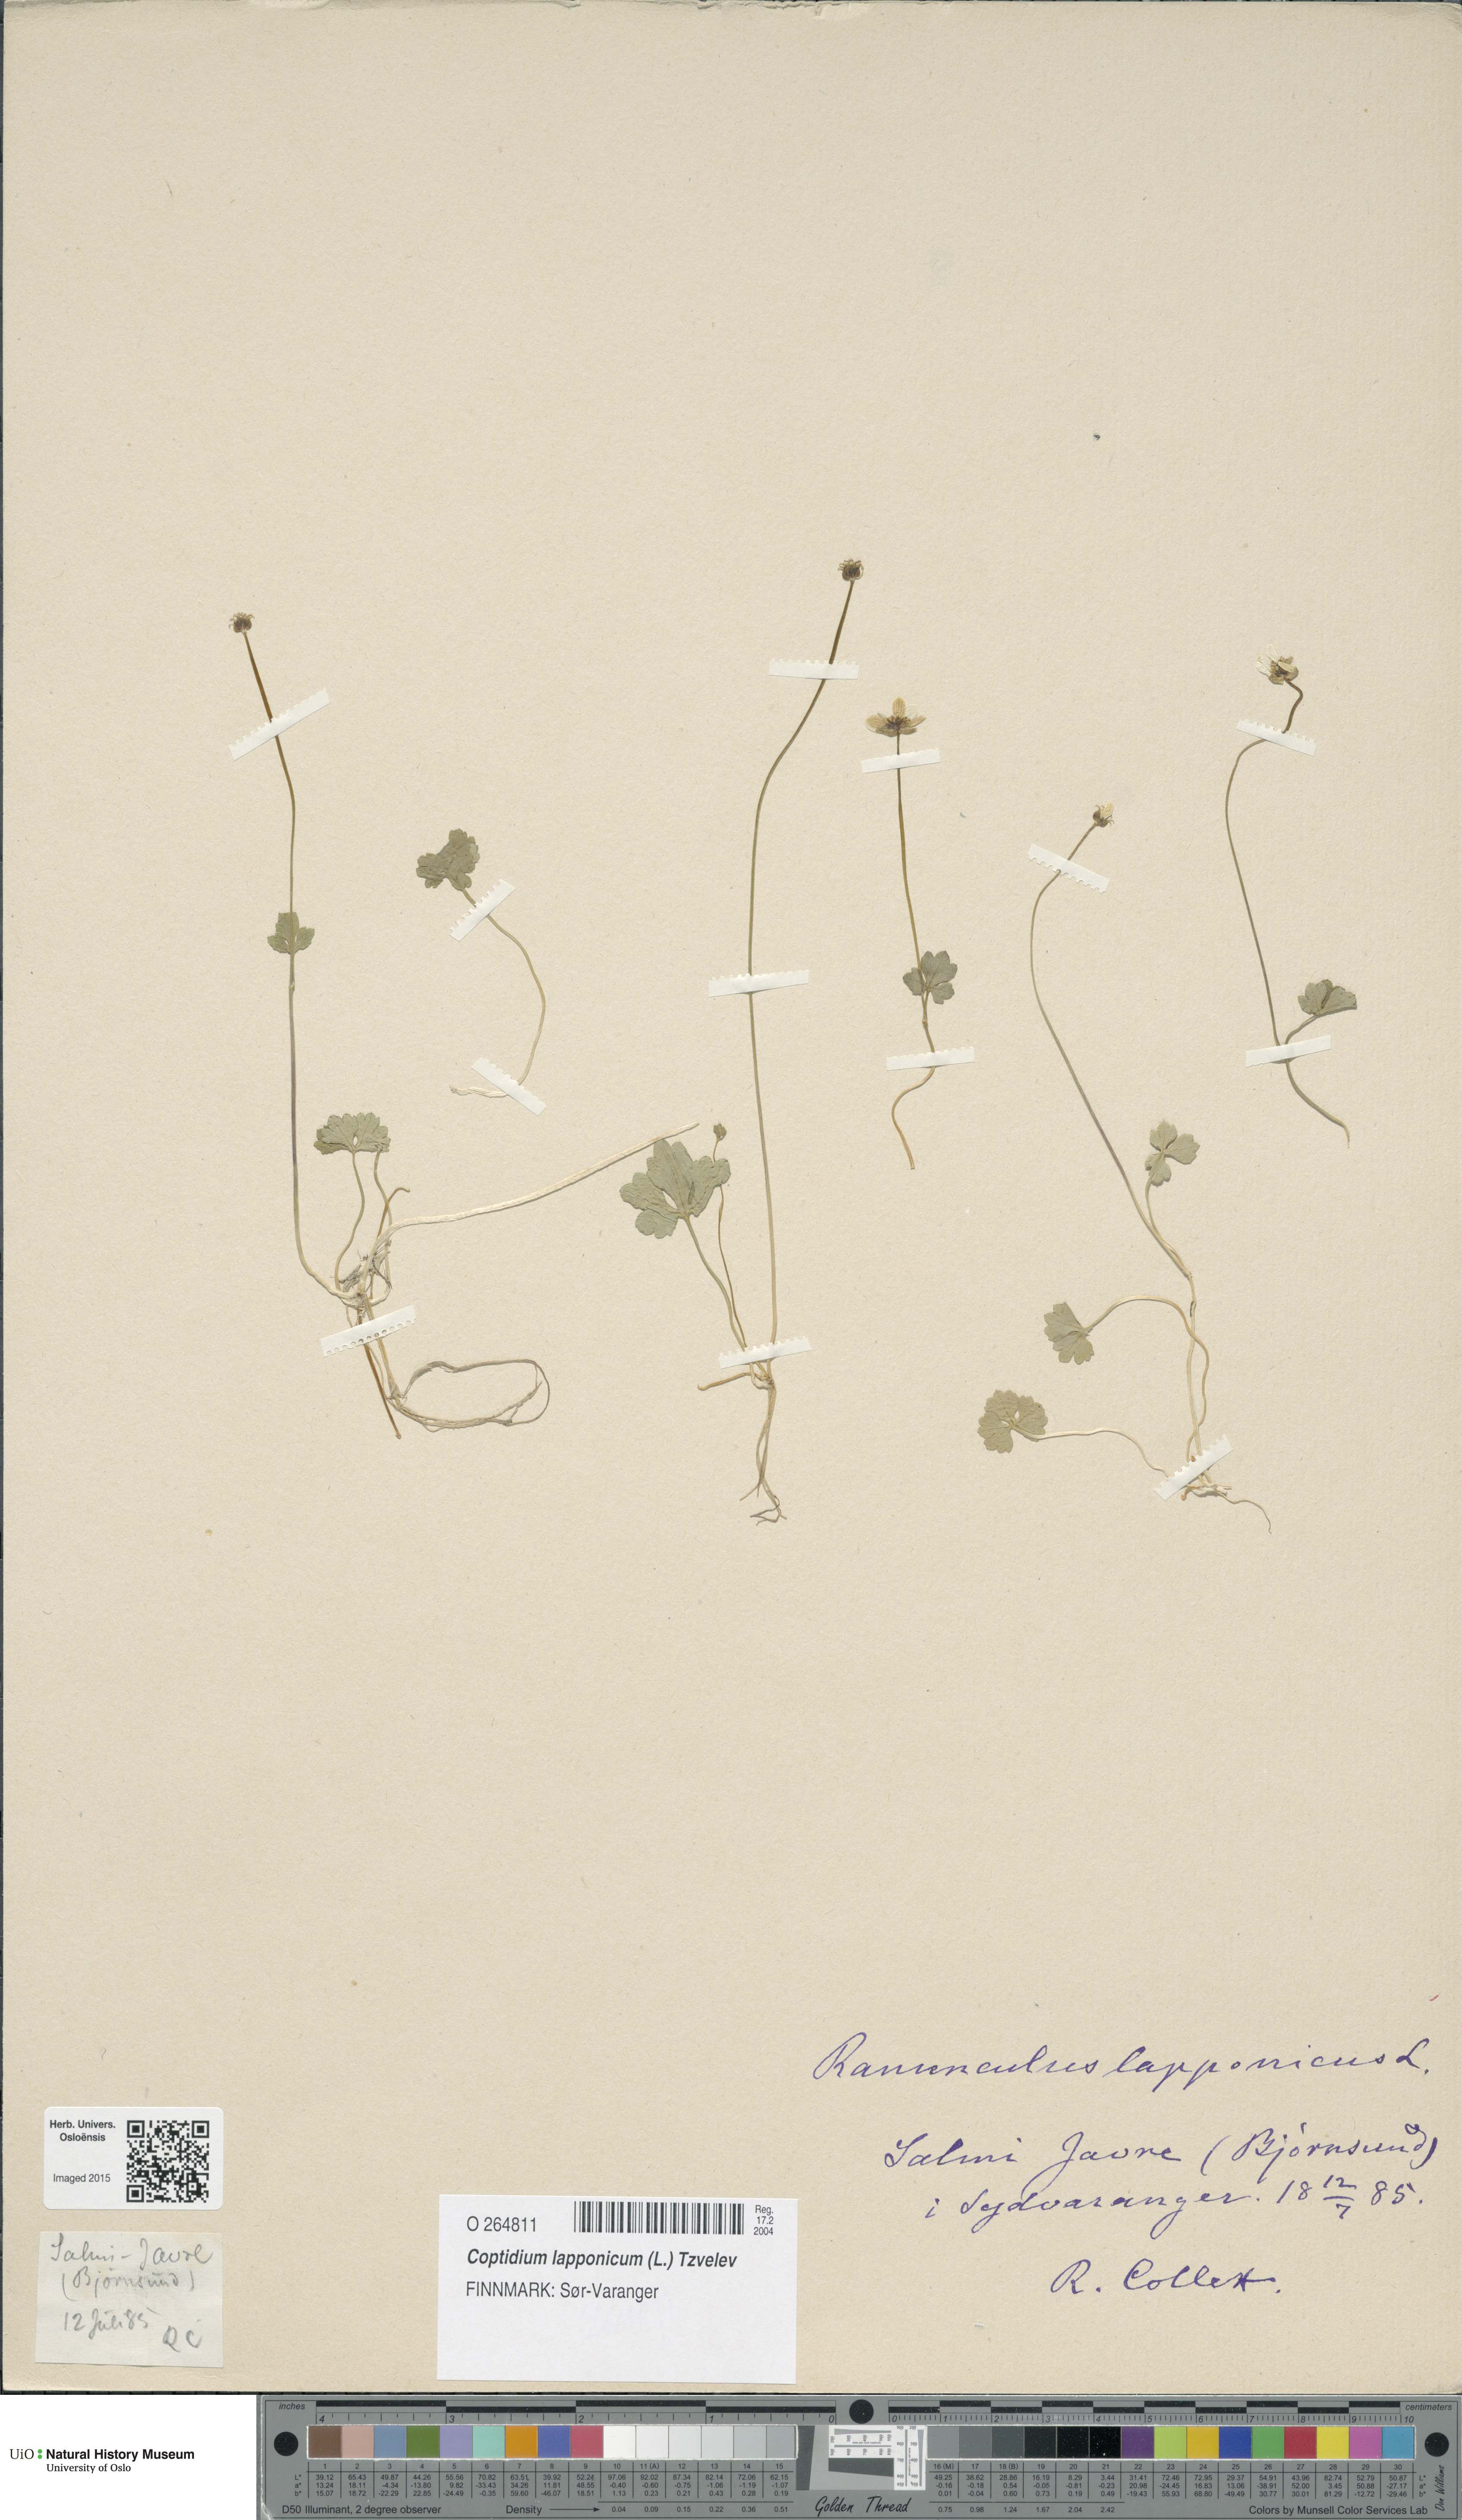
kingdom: Plantae
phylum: Tracheophyta
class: Magnoliopsida
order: Ranunculales
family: Ranunculaceae
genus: Coptidium
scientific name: Coptidium lapponicum
